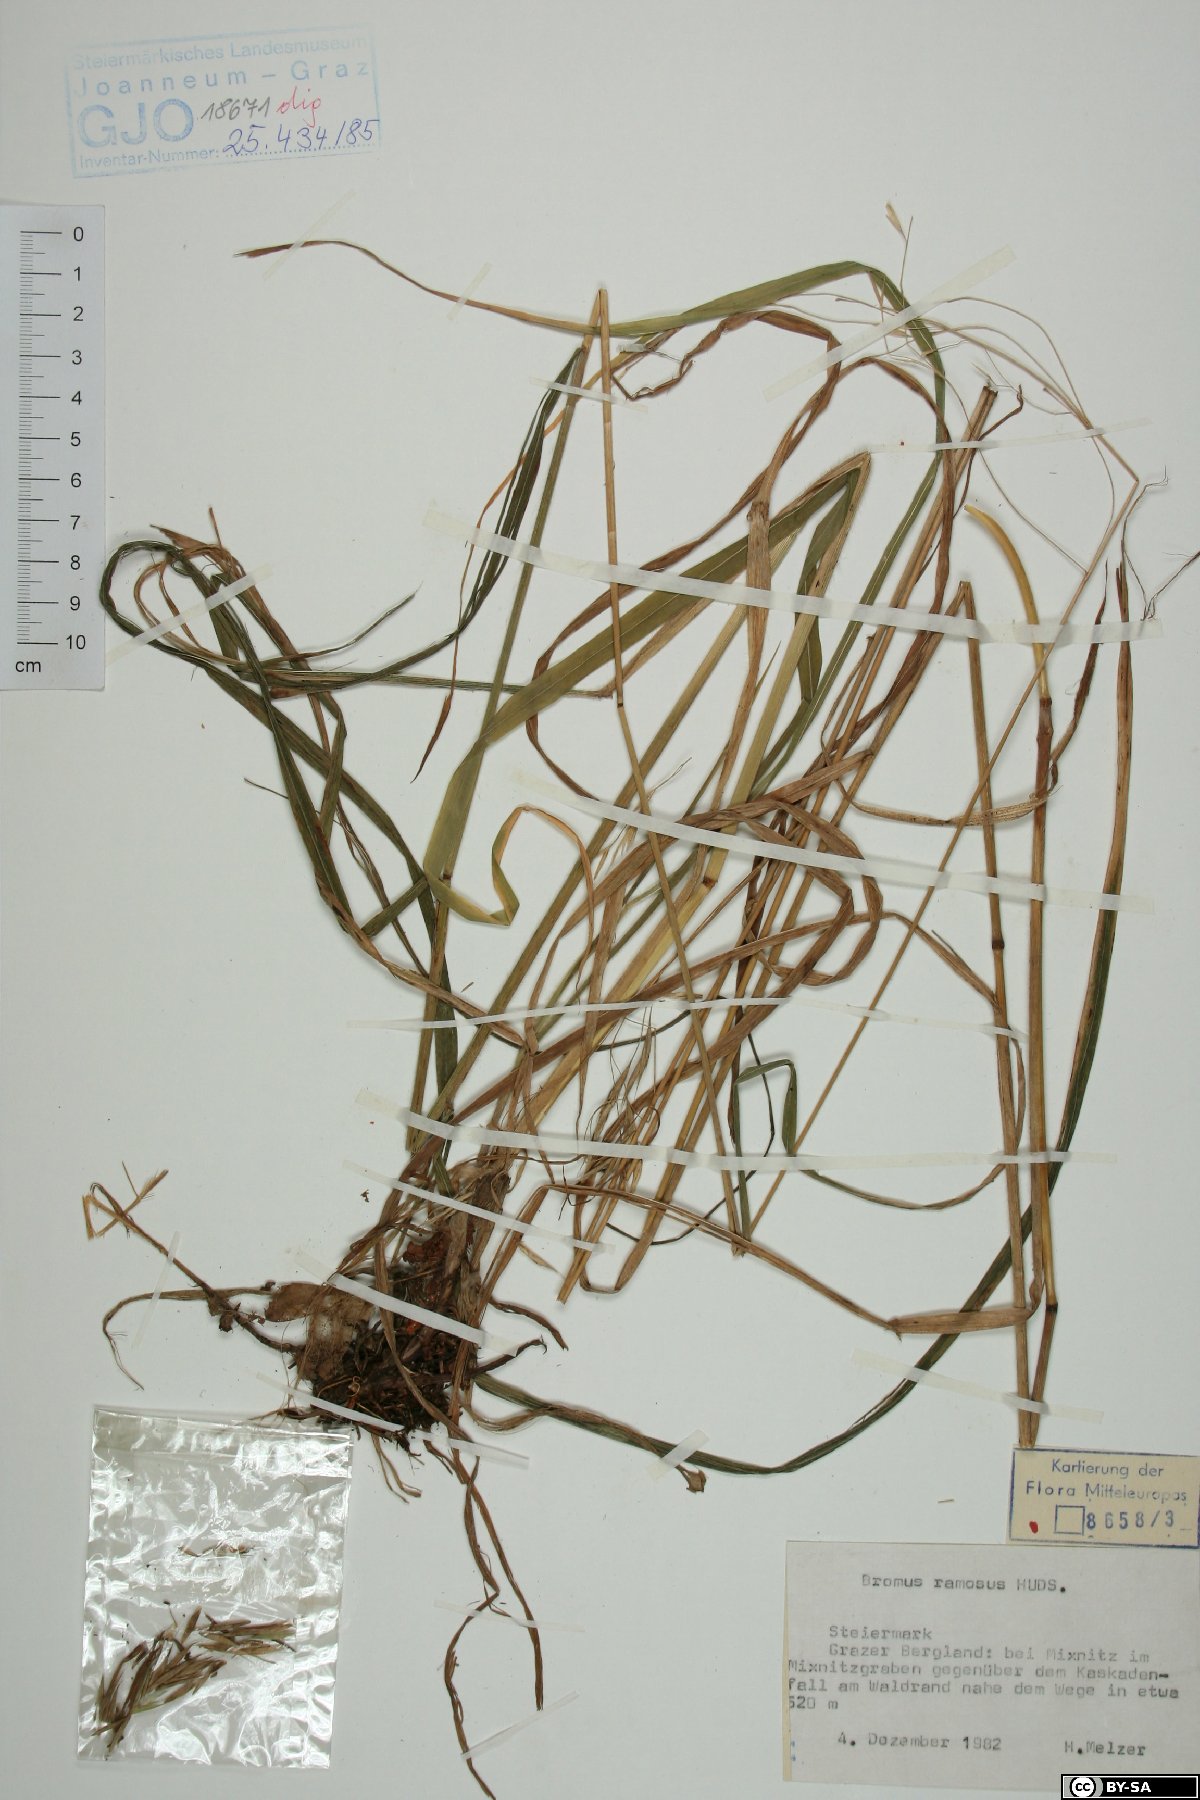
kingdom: Plantae
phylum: Tracheophyta
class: Liliopsida
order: Poales
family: Poaceae
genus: Bromus
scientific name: Bromus ramosus
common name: Hairy brome
